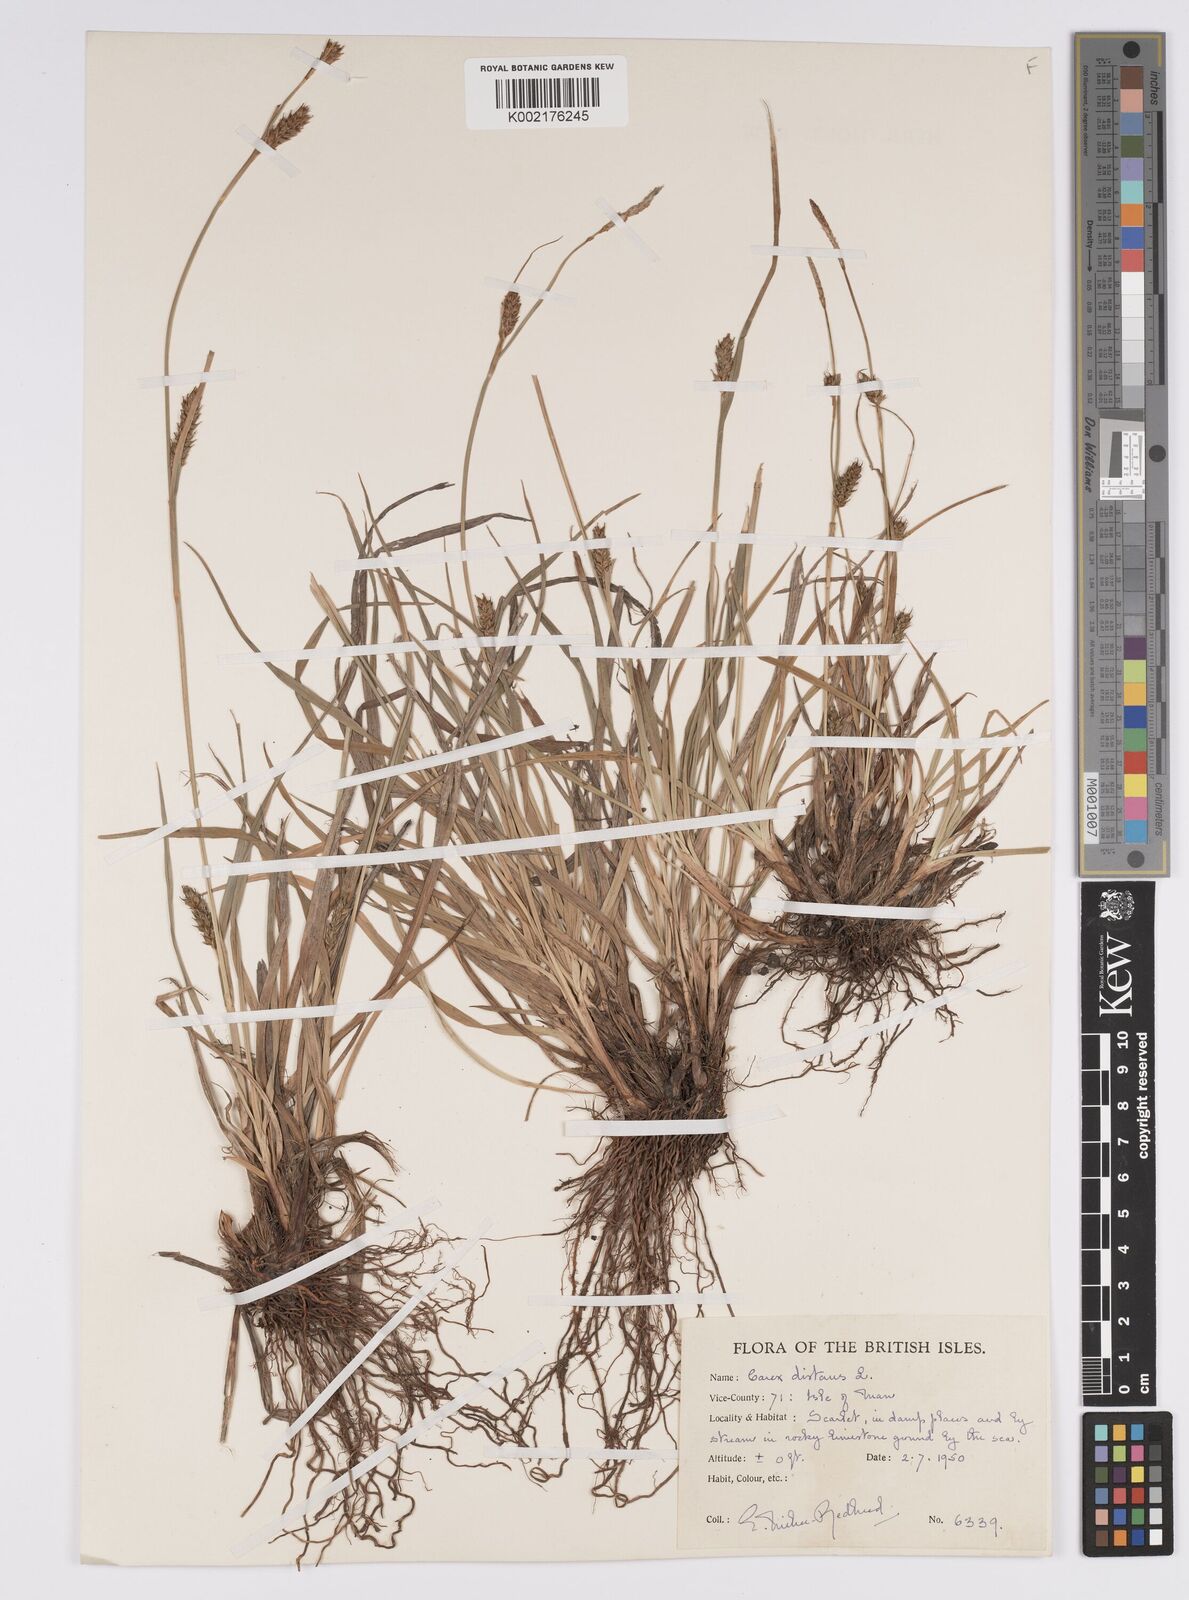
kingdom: Plantae
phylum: Tracheophyta
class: Liliopsida
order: Poales
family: Cyperaceae
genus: Carex
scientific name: Carex distans
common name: Distant sedge
